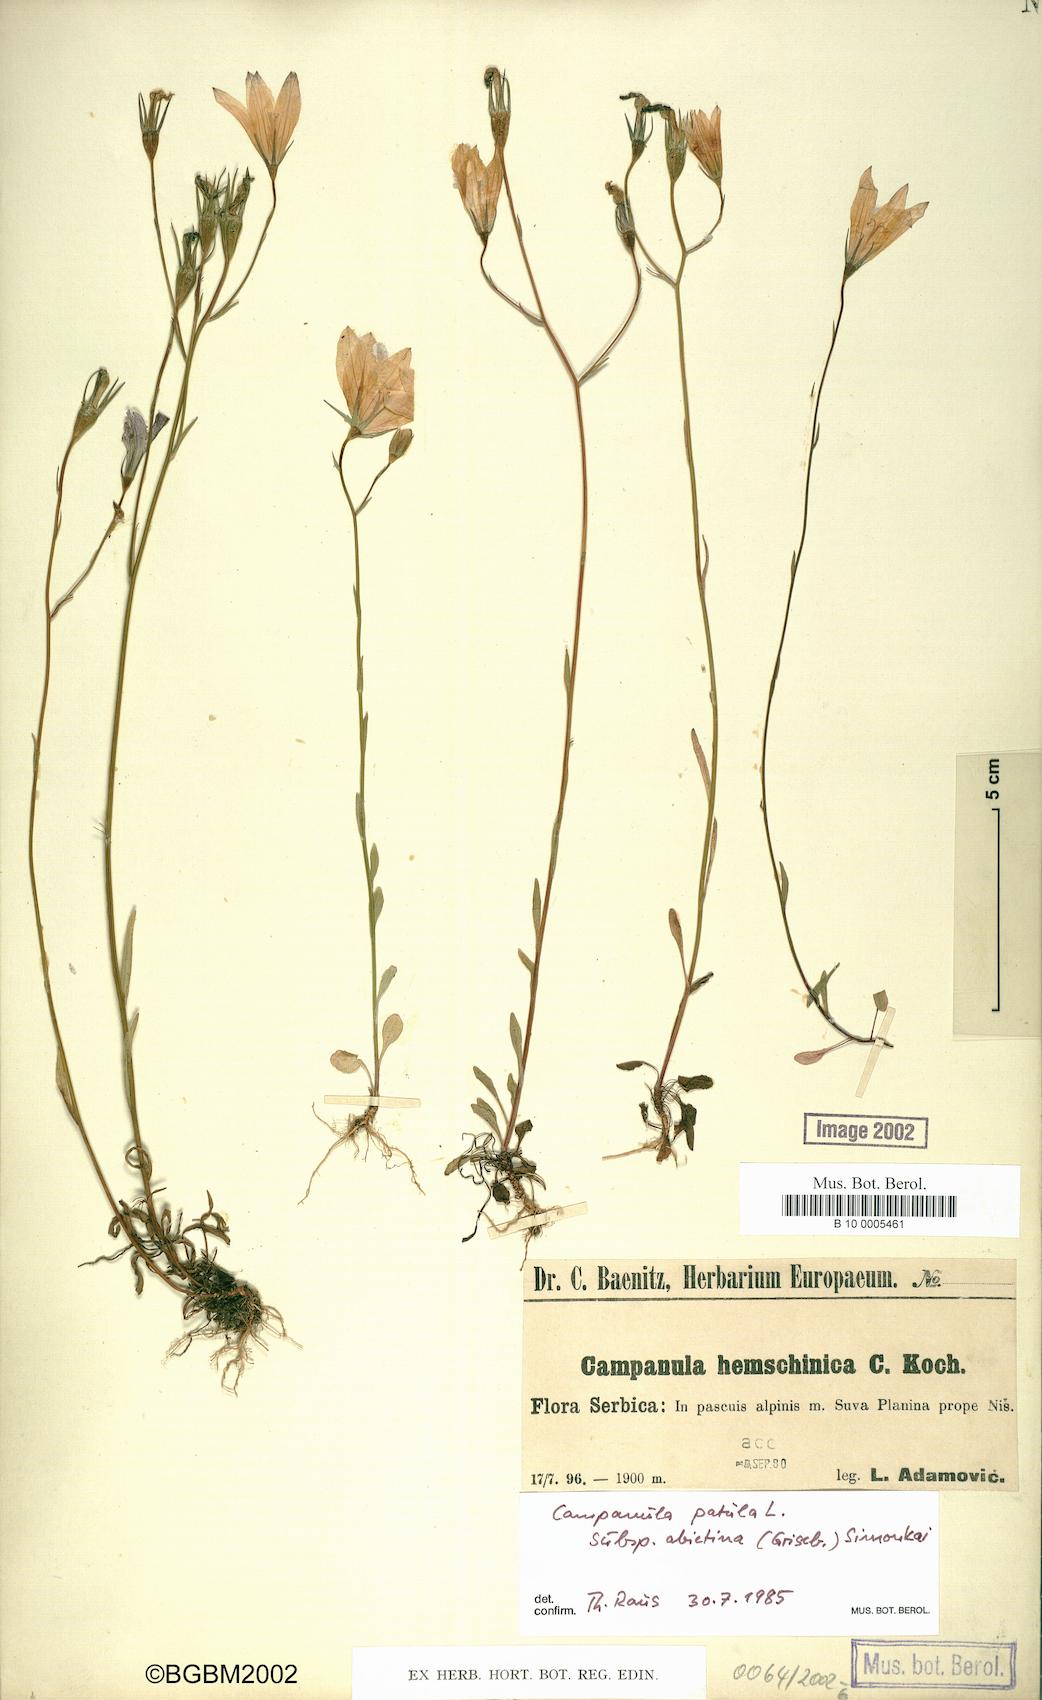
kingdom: Plantae
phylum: Tracheophyta
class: Magnoliopsida
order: Asterales
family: Campanulaceae
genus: Campanula
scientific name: Campanula patula
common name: Spreading bellflower
